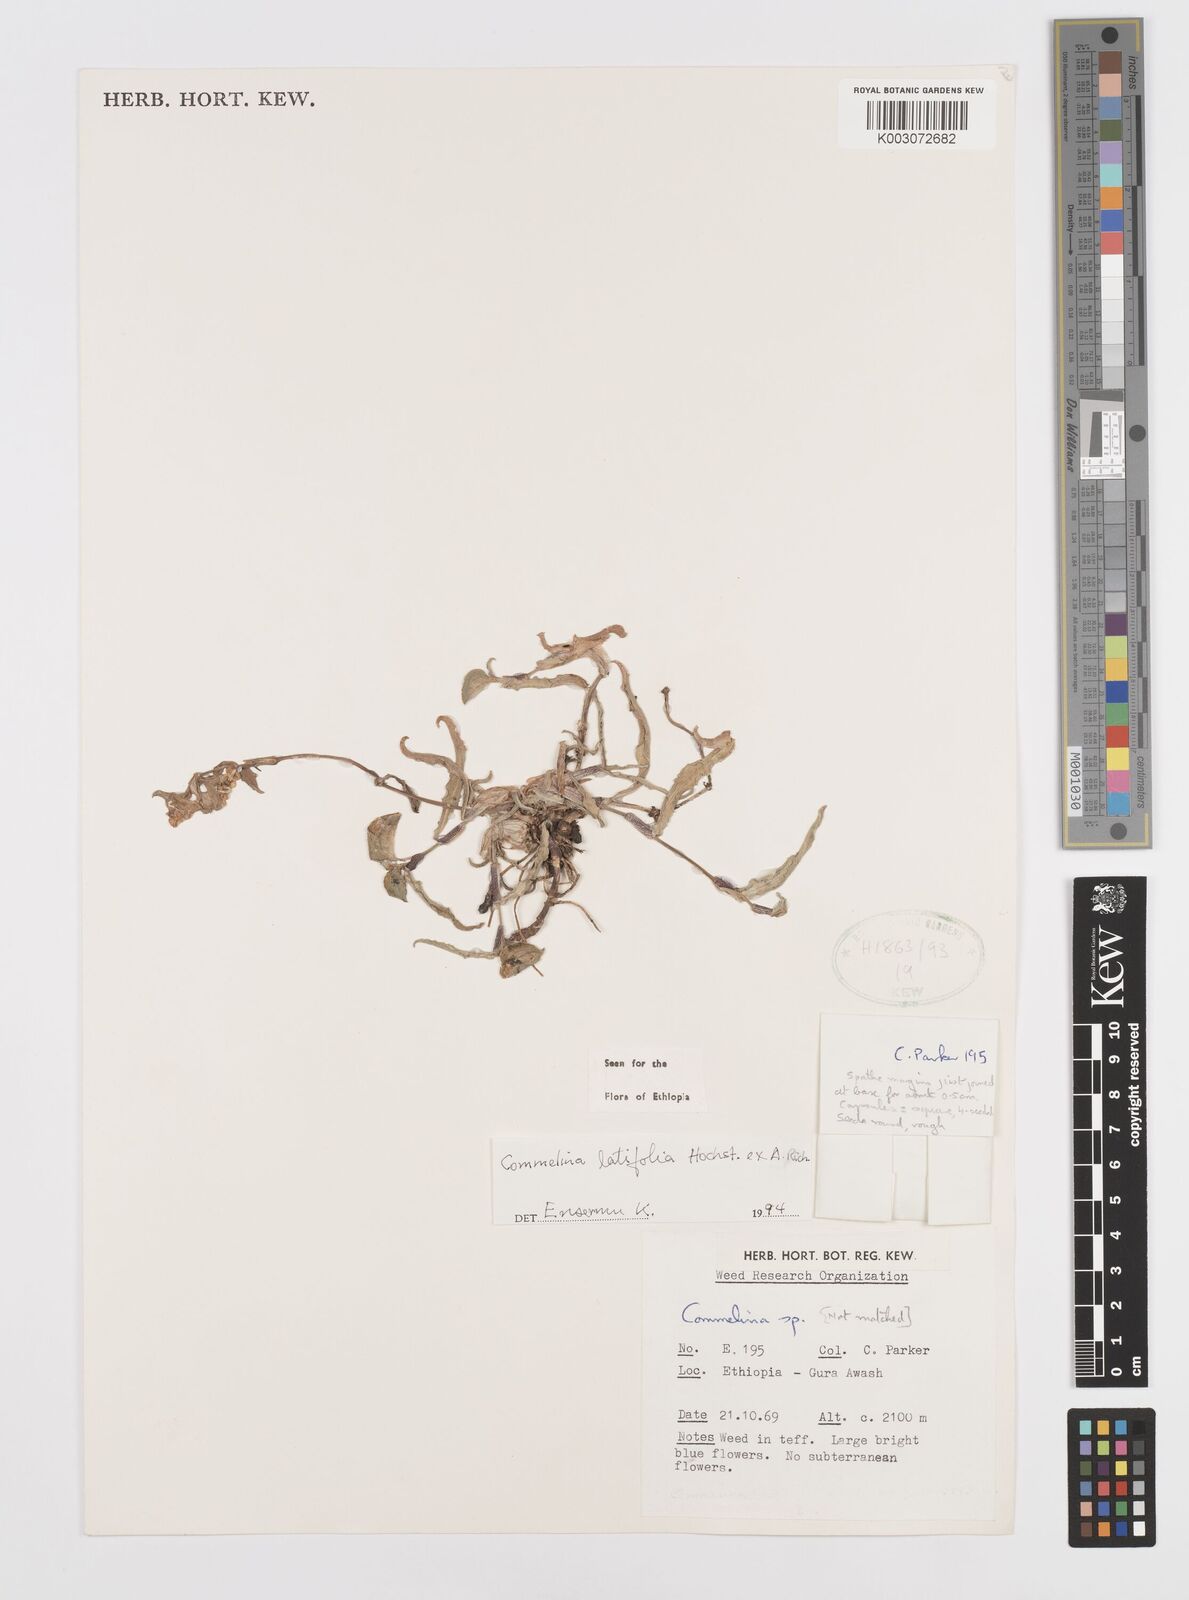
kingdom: Plantae
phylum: Tracheophyta
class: Liliopsida
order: Commelinales
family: Commelinaceae
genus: Commelina
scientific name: Commelina imberbis
